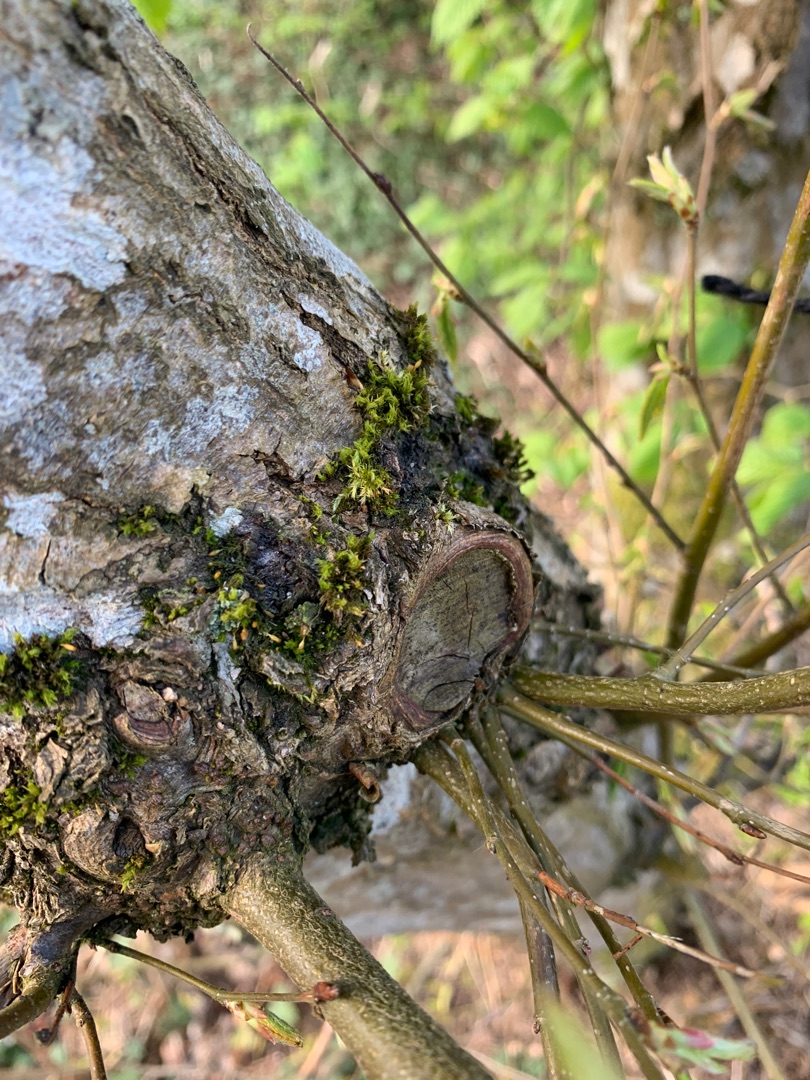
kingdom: Plantae
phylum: Bryophyta
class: Bryopsida
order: Orthotrichales
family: Orthotrichaceae
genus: Orthotrichum
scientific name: Orthotrichum pulchellum
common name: Smuk furehætte
